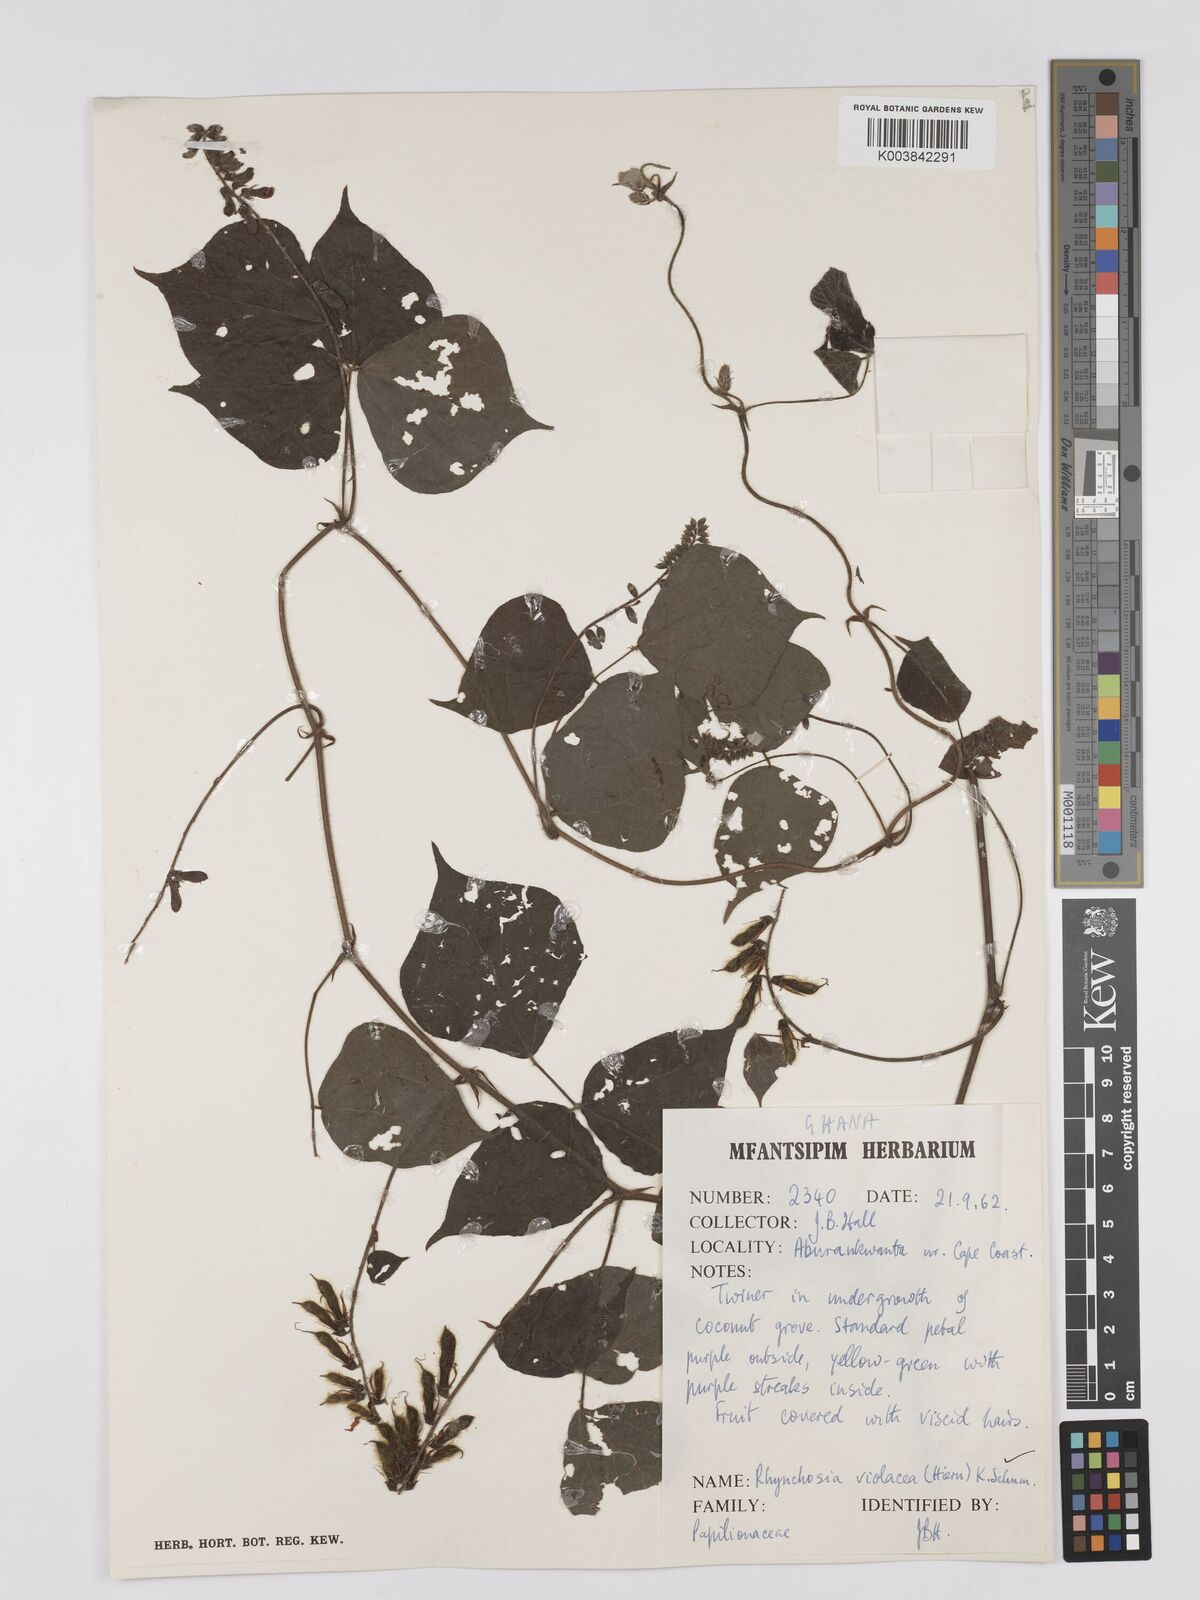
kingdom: Plantae
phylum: Tracheophyta
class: Magnoliopsida
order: Fabales
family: Fabaceae
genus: Rhynchosia
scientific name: Rhynchosia viscosa
